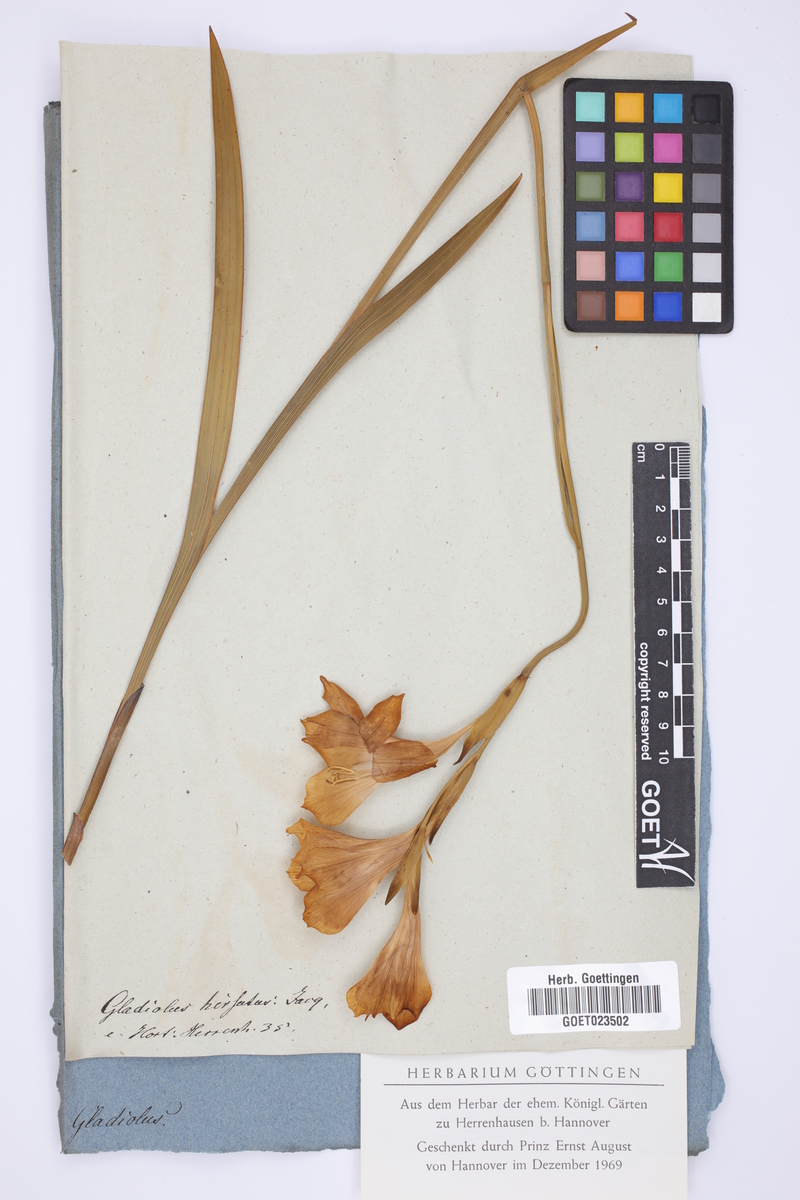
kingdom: Plantae
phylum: Tracheophyta
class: Liliopsida
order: Asparagales
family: Iridaceae
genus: Gladiolus
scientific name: Gladiolus hirsutus
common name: Small pink afrikaner
